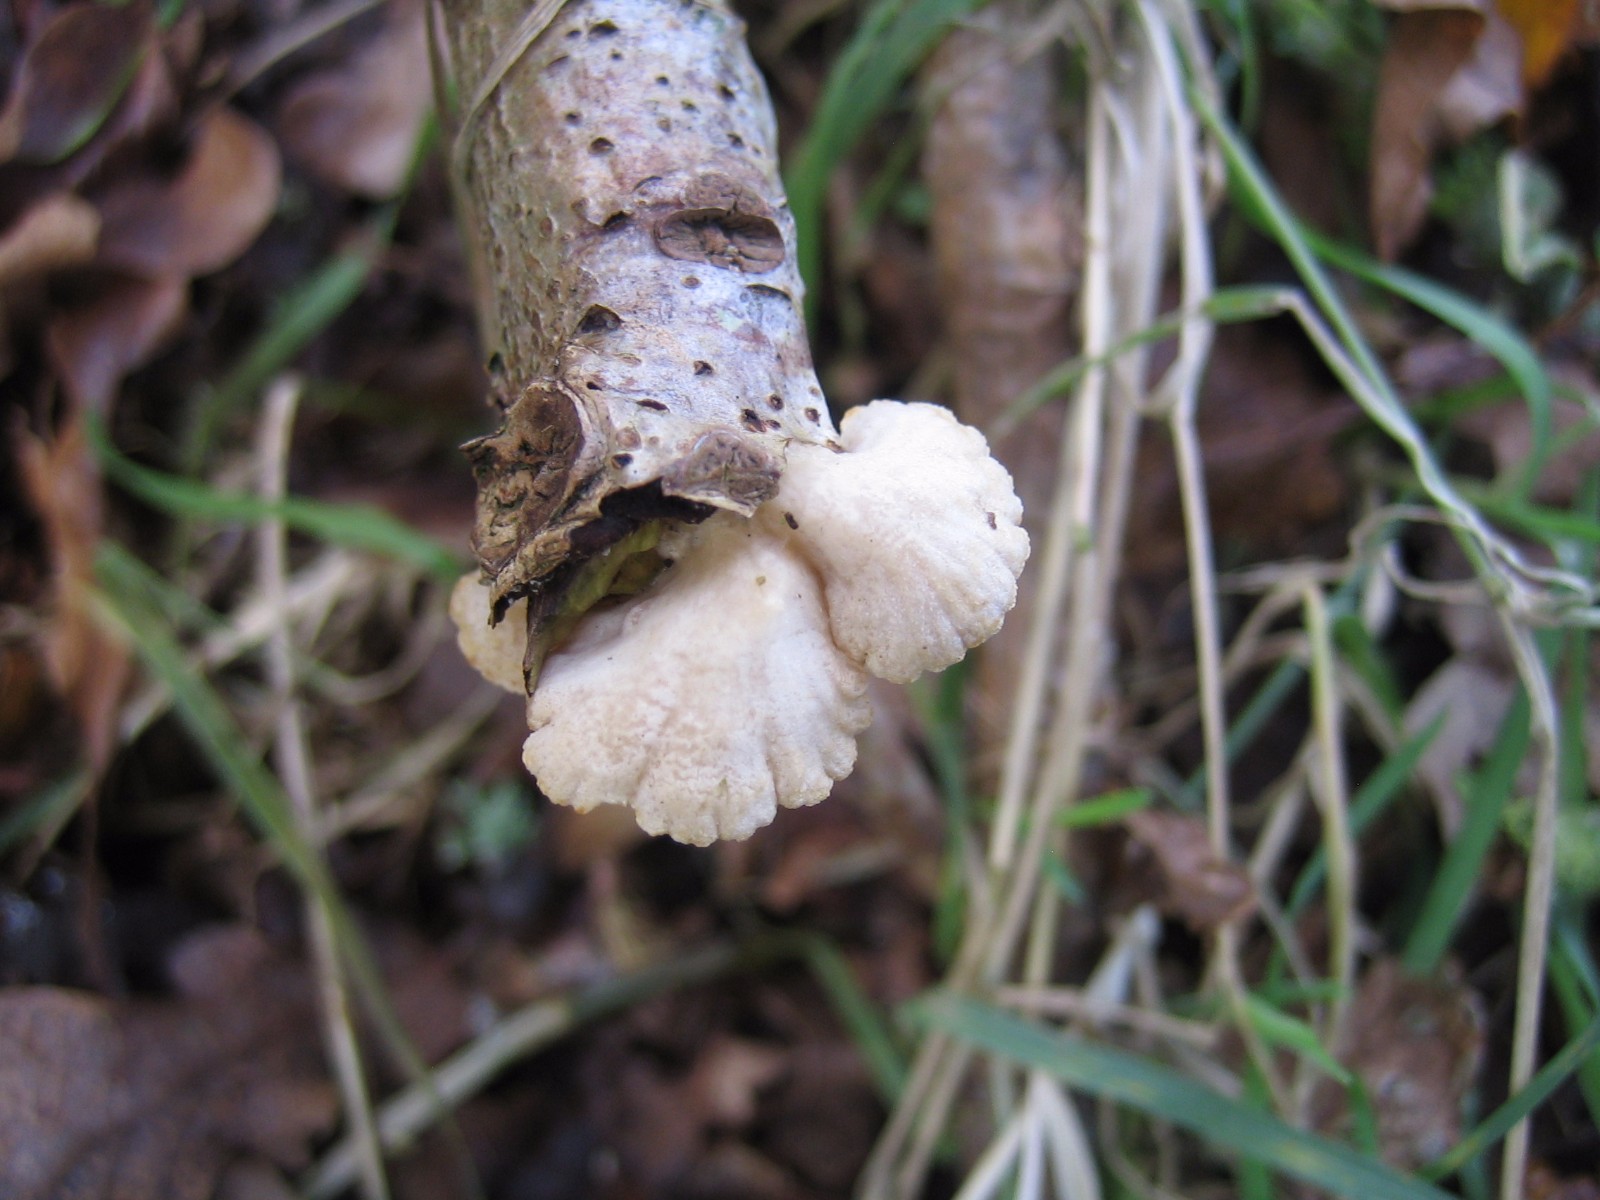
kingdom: Fungi
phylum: Basidiomycota
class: Agaricomycetes
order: Agaricales
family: Crepidotaceae
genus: Crepidotus
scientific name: Crepidotus
